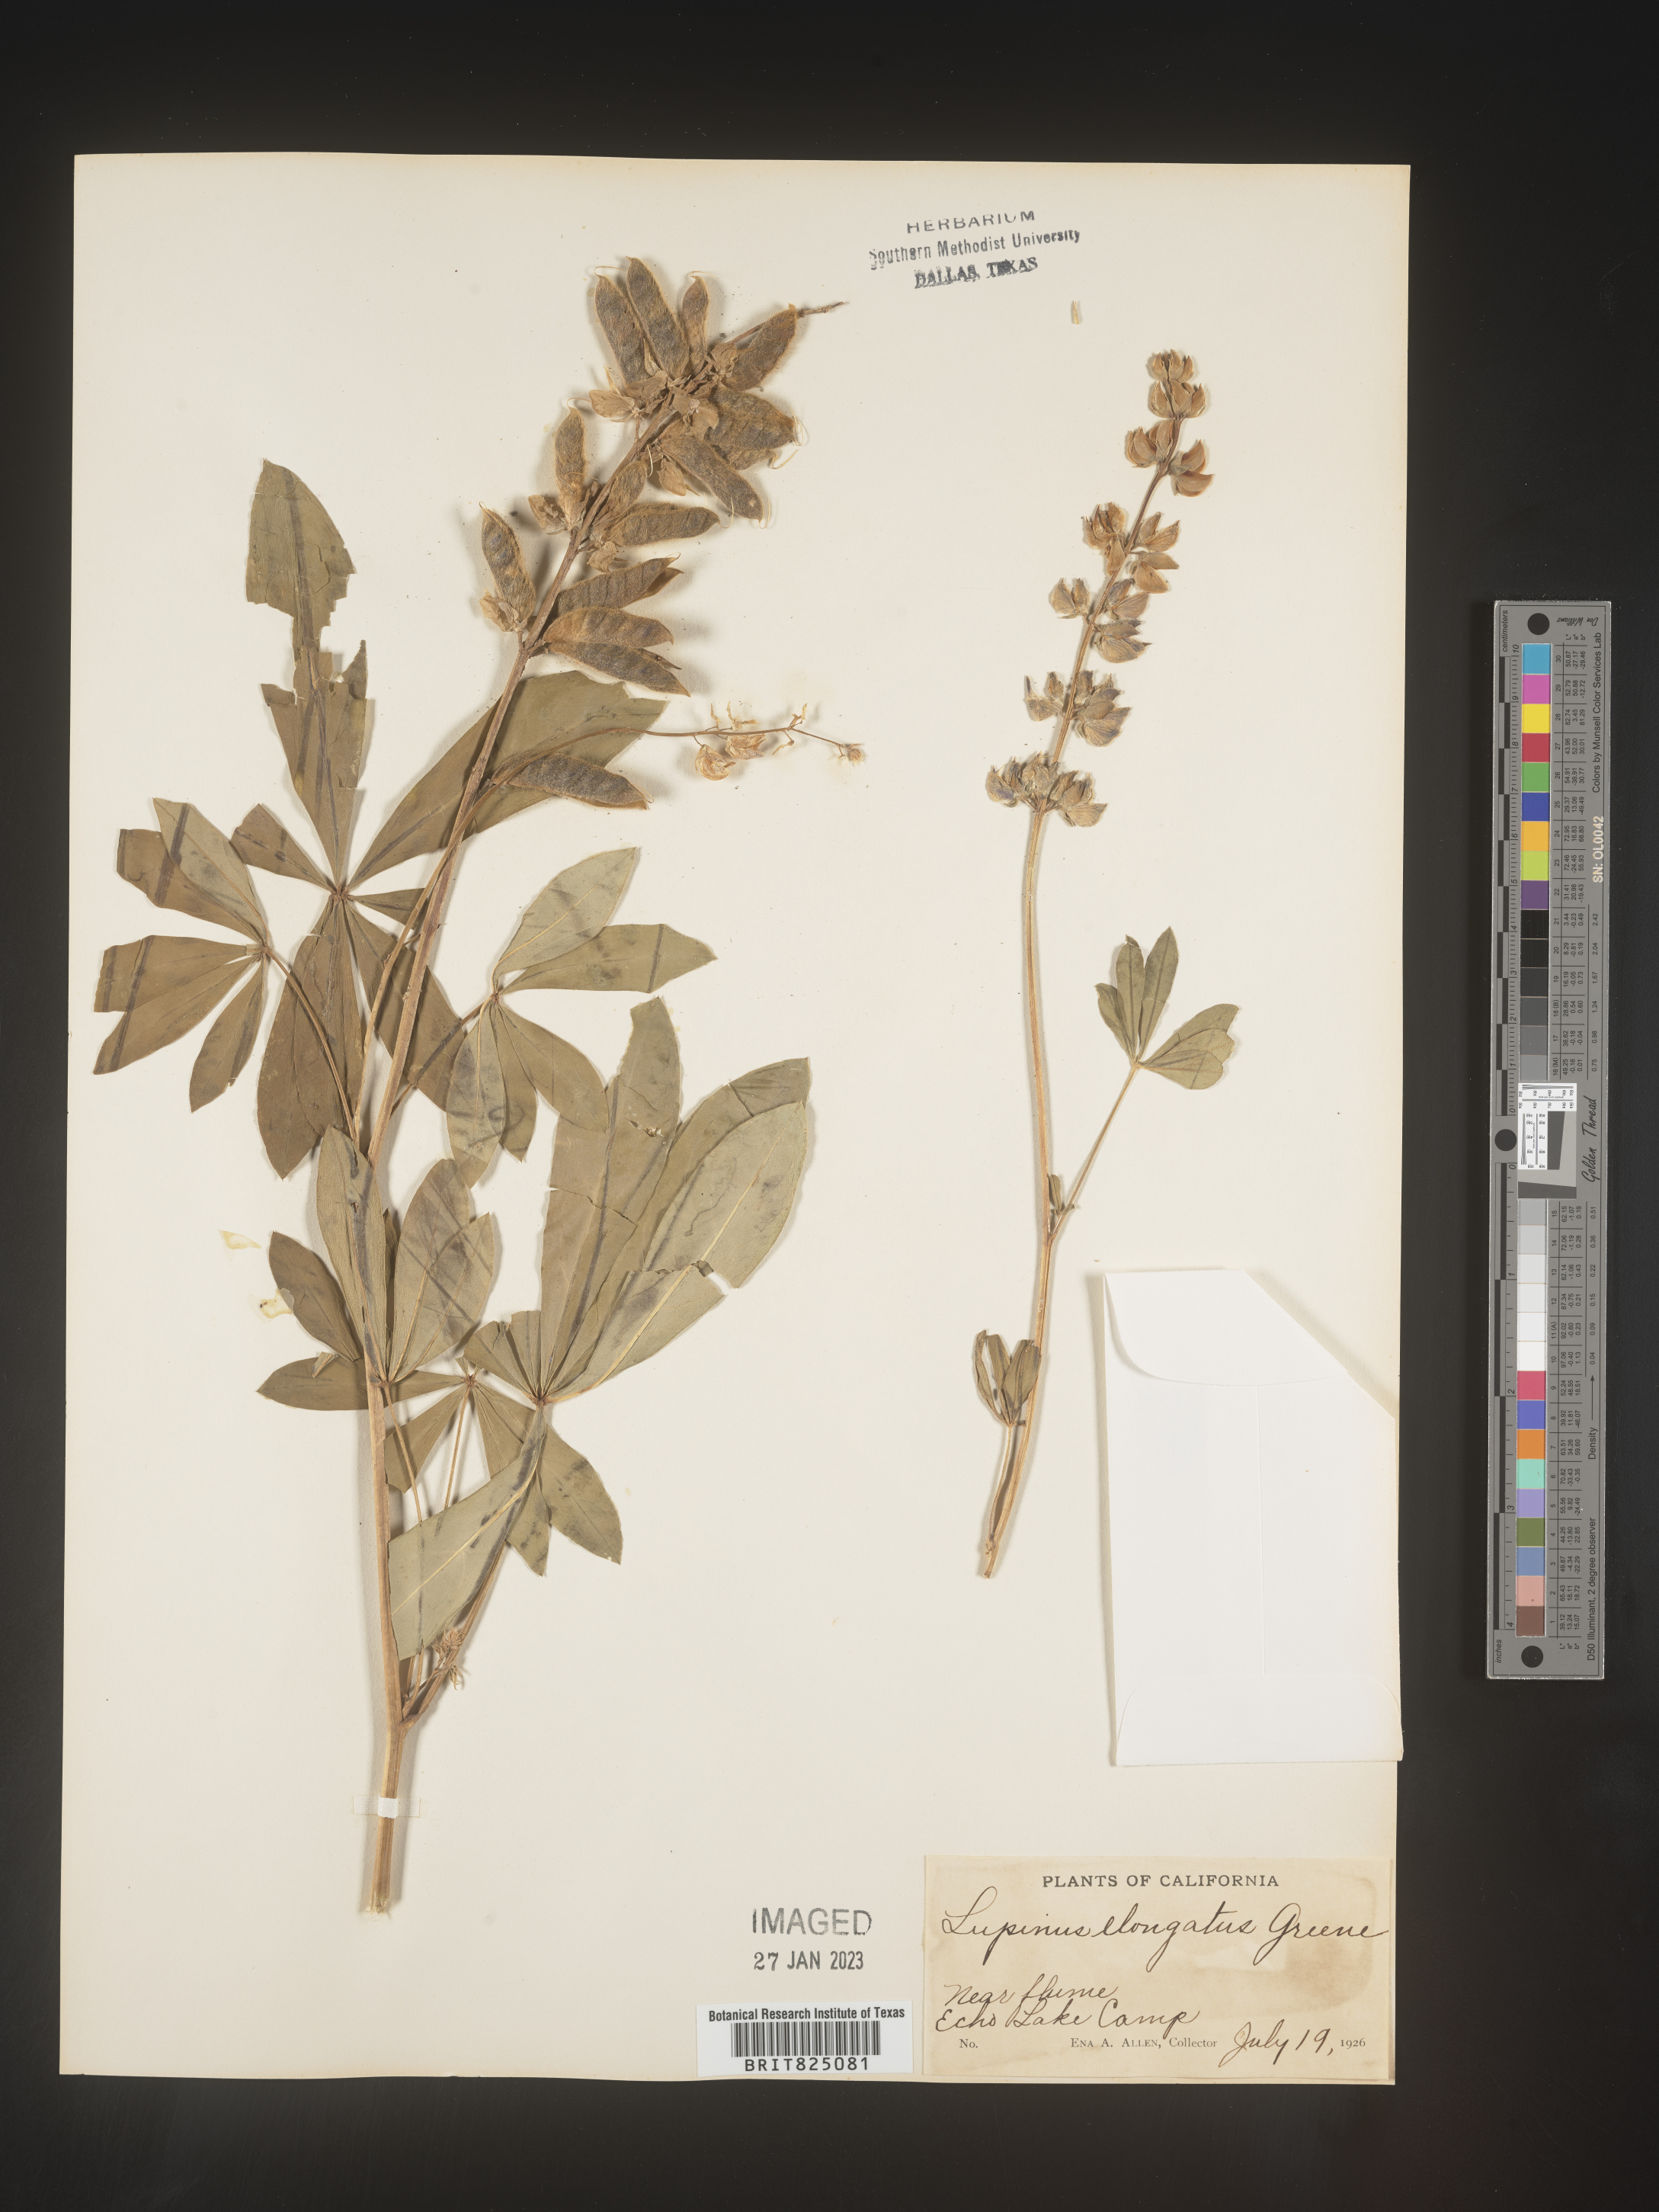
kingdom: Plantae
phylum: Tracheophyta
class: Magnoliopsida
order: Fabales
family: Fabaceae
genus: Lupinus
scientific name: Lupinus
